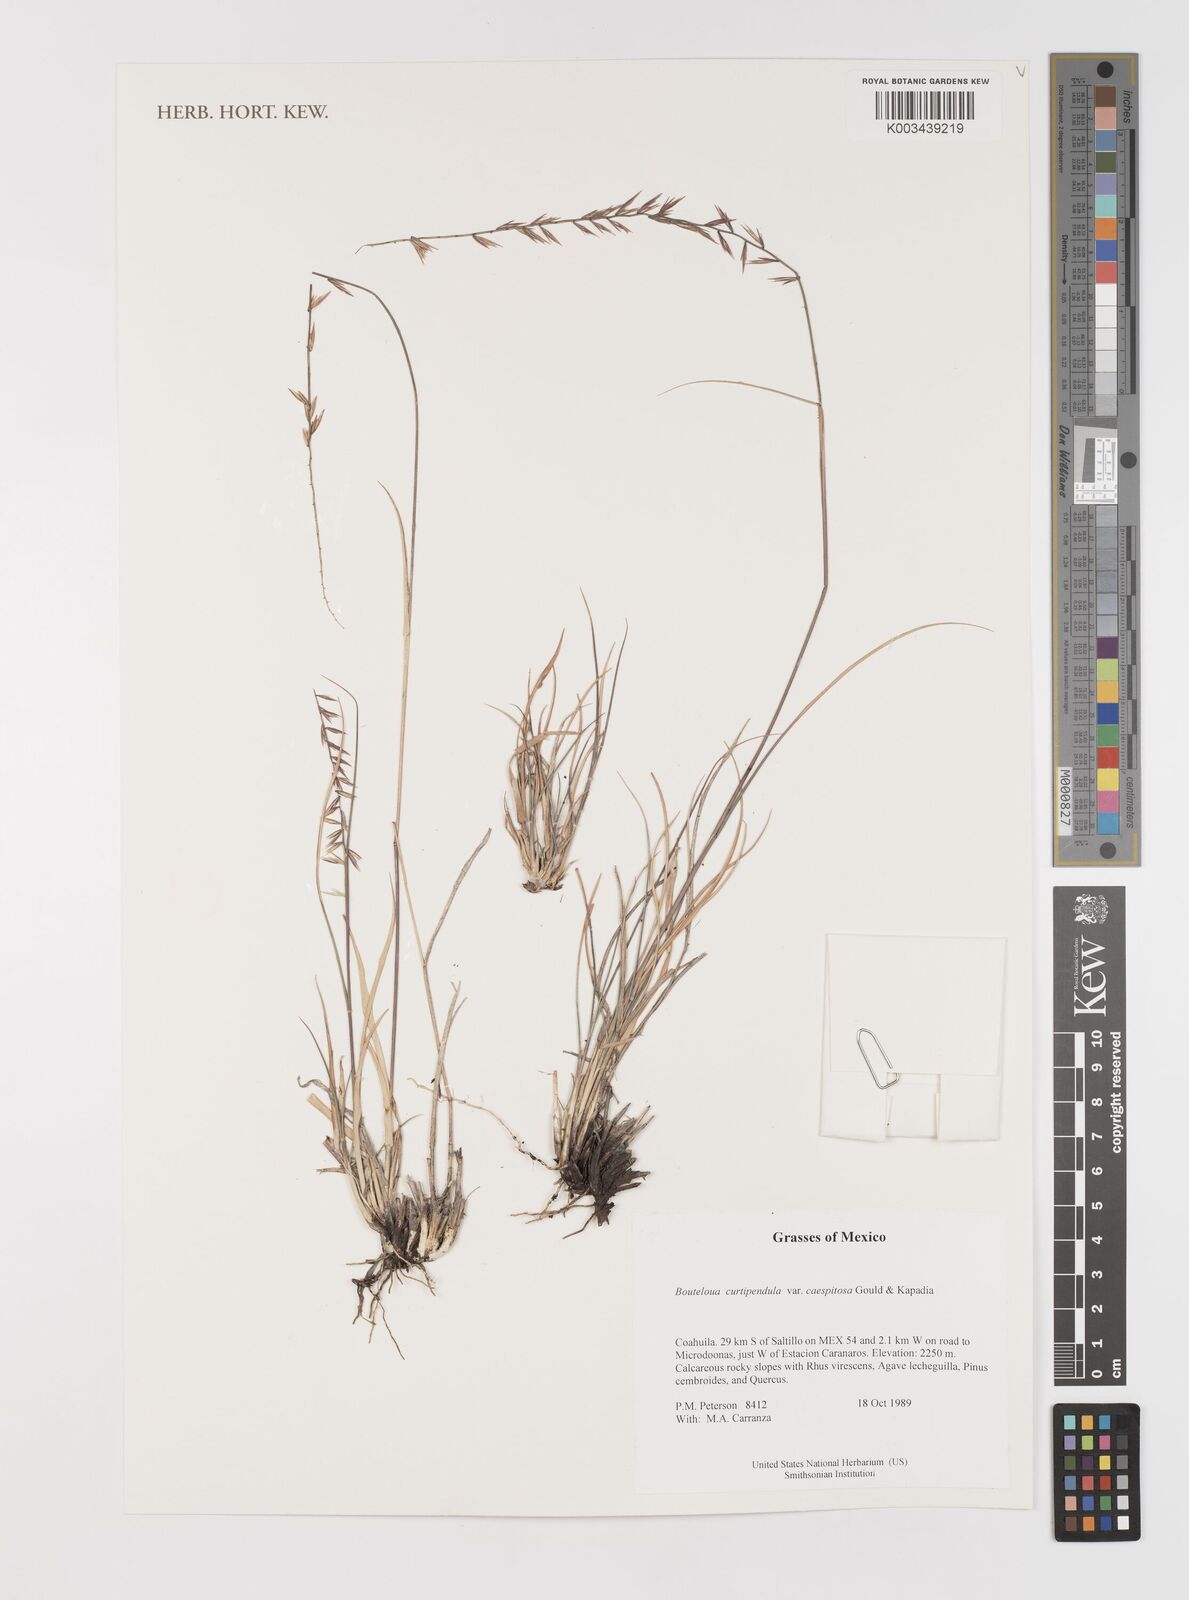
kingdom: Plantae
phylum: Tracheophyta
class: Liliopsida
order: Poales
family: Poaceae
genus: Bouteloua
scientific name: Bouteloua curtipendula
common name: Side-oats grama
